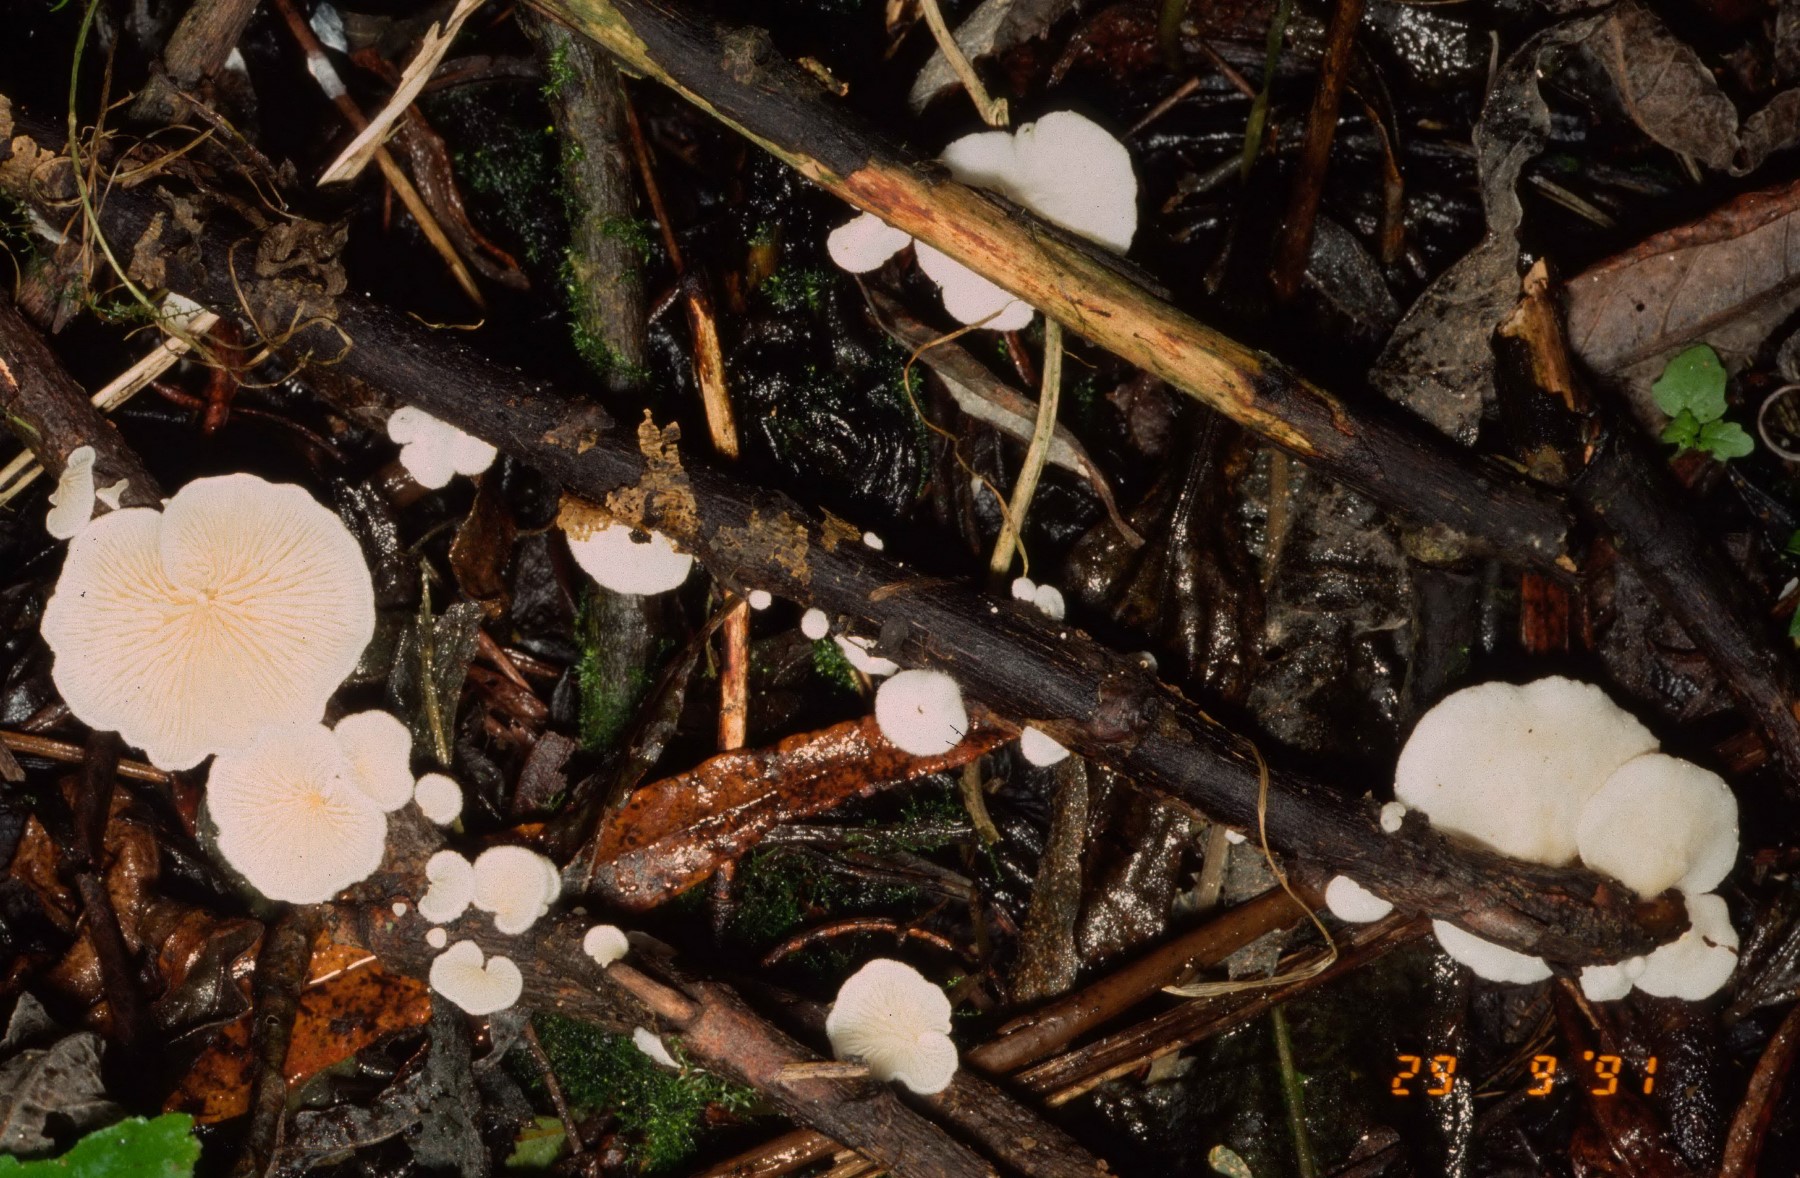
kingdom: Fungi
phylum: Basidiomycota
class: Agaricomycetes
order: Agaricales
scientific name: Agaricales
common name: champignonordenen
